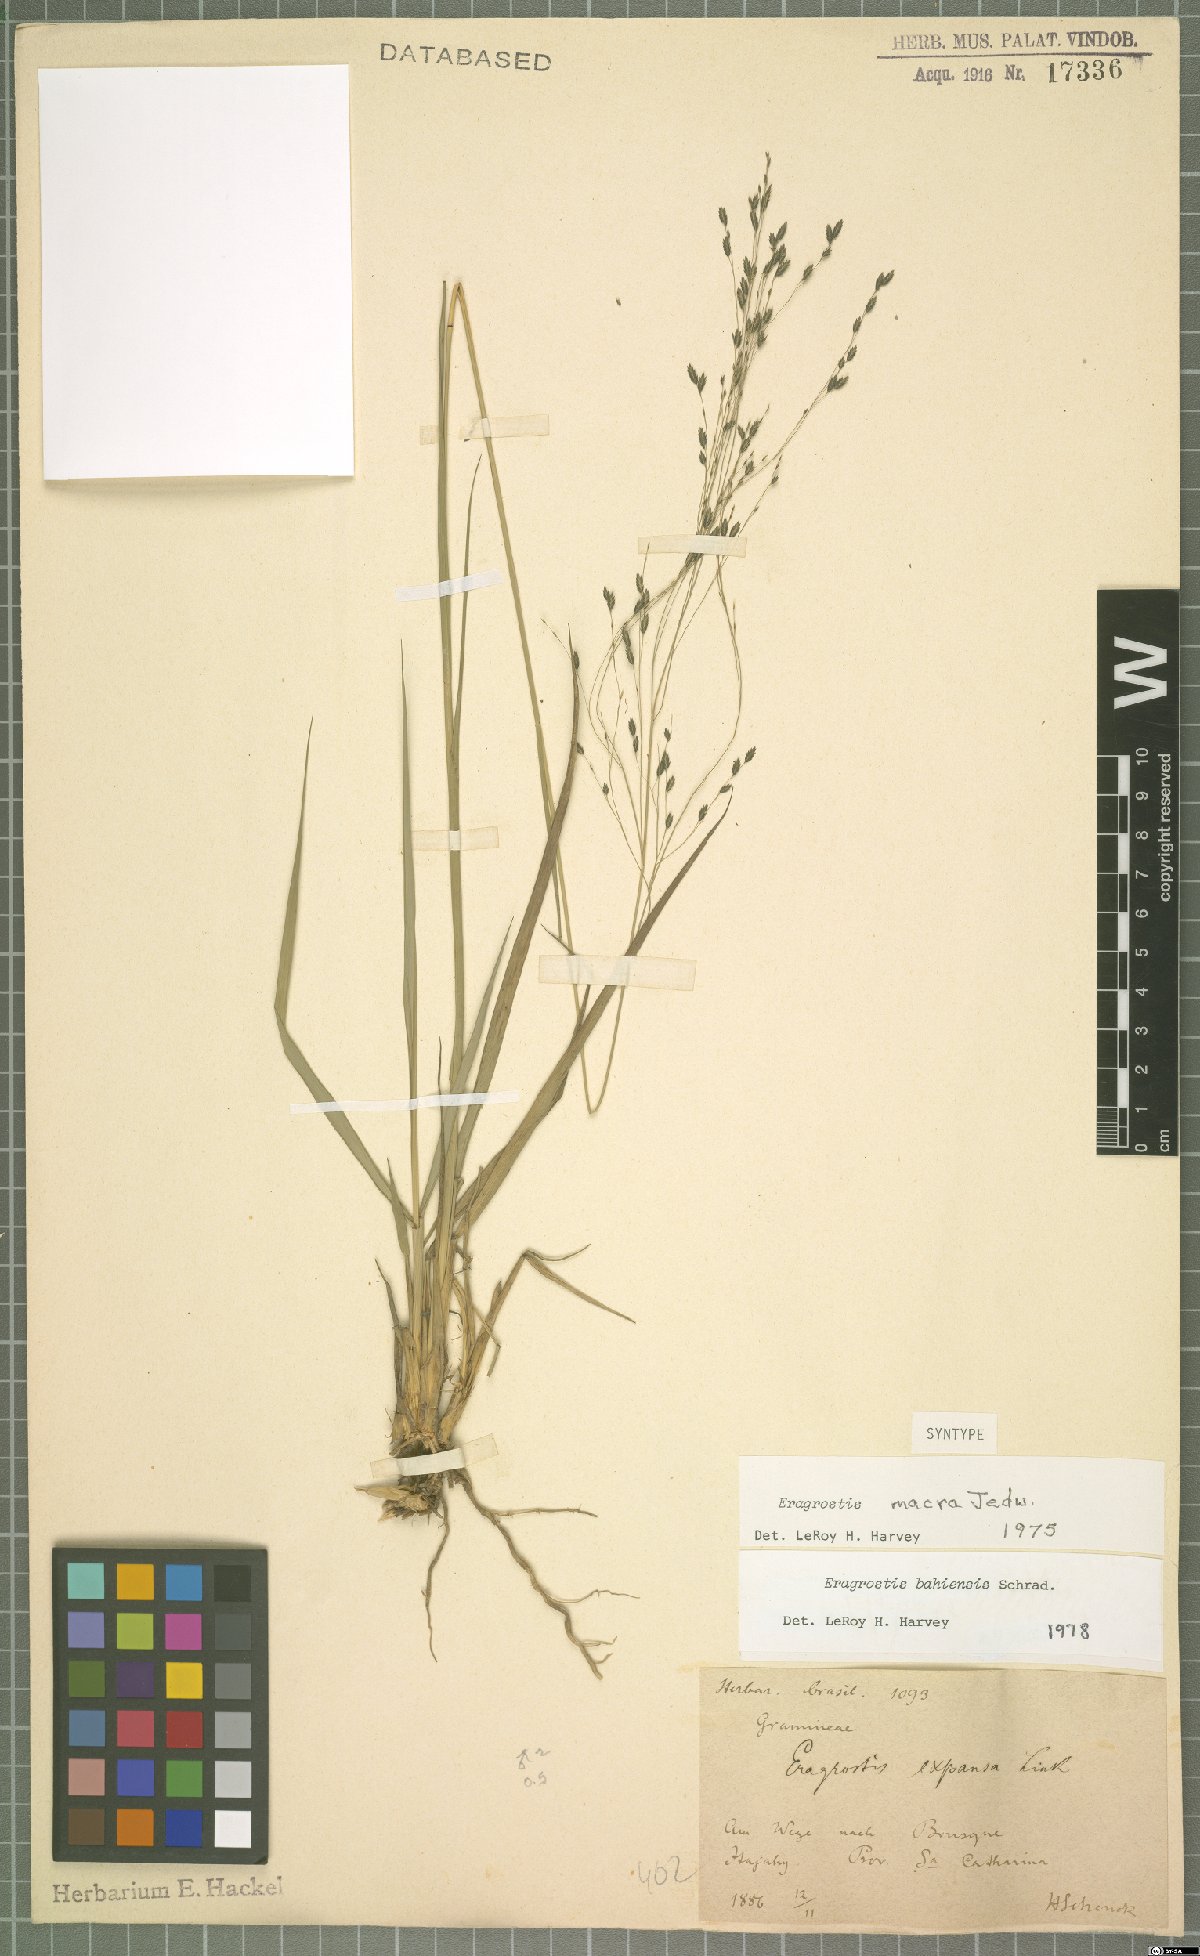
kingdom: Plantae
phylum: Tracheophyta
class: Liliopsida
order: Poales
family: Poaceae
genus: Eragrostis
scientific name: Eragrostis bahiensis
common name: Bahia lovegrass
